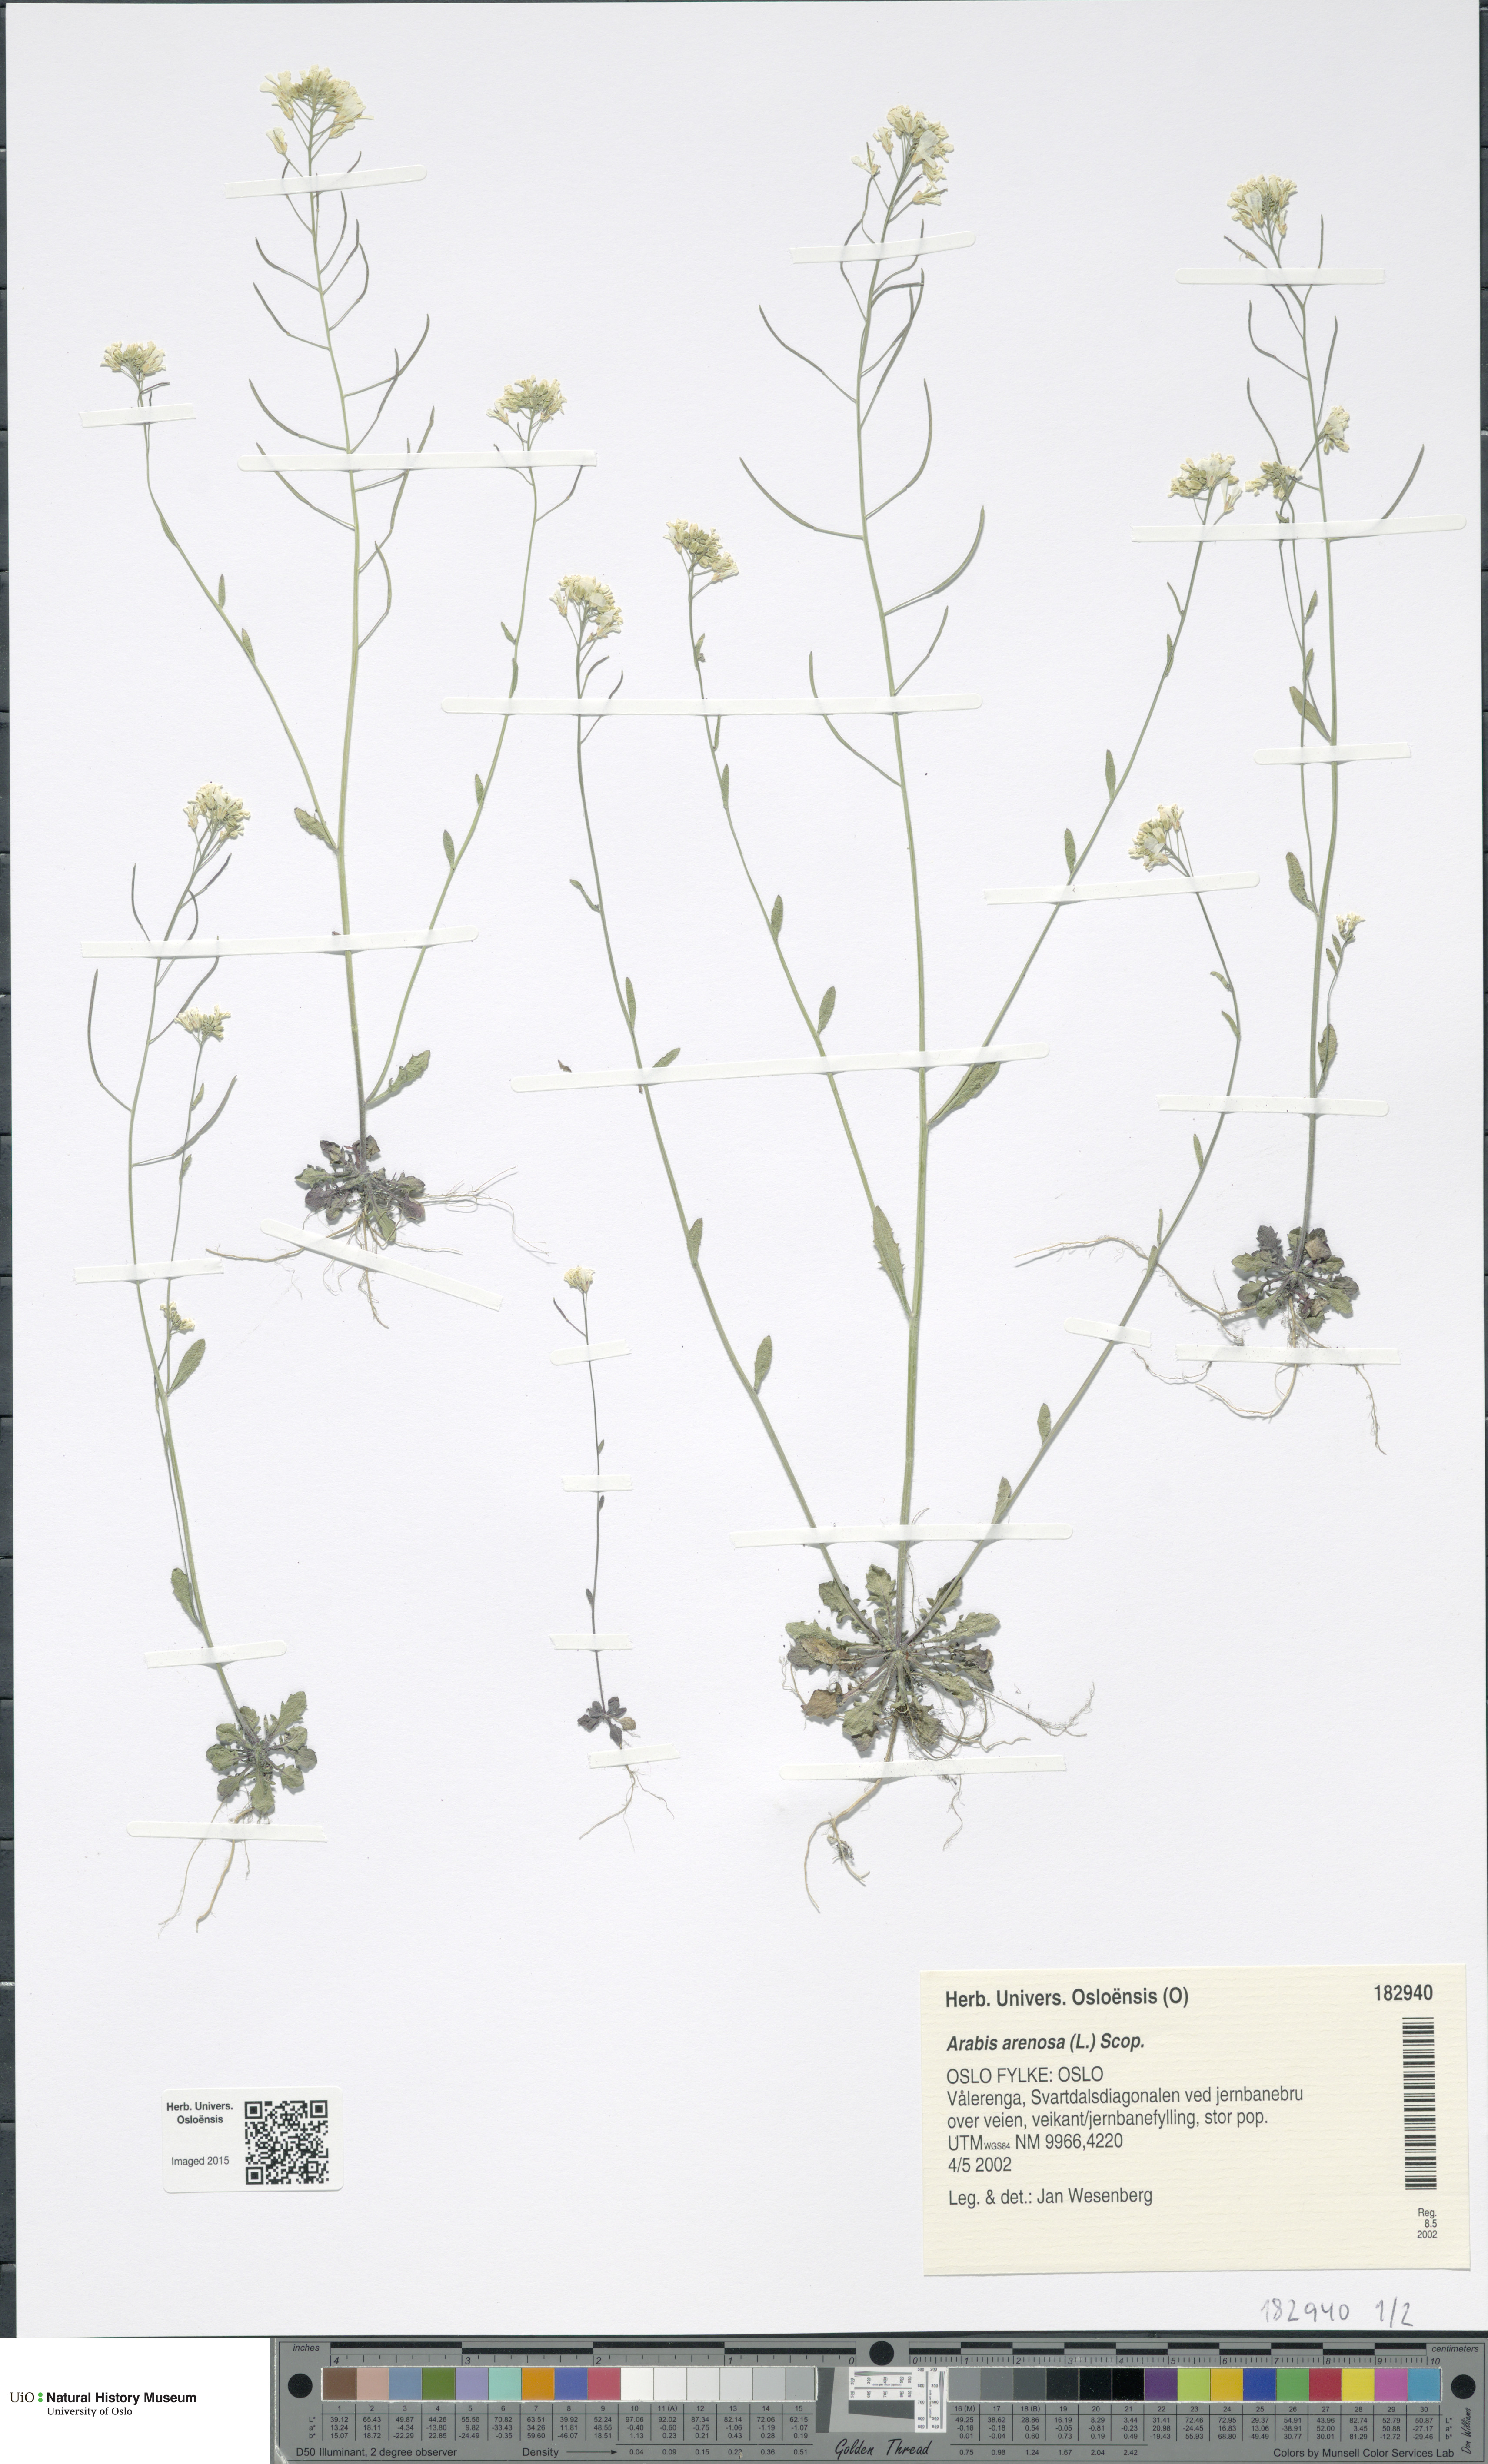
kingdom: Plantae
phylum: Tracheophyta
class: Magnoliopsida
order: Brassicales
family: Brassicaceae
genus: Arabidopsis
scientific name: Arabidopsis arenosa
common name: Sand rock-cress
